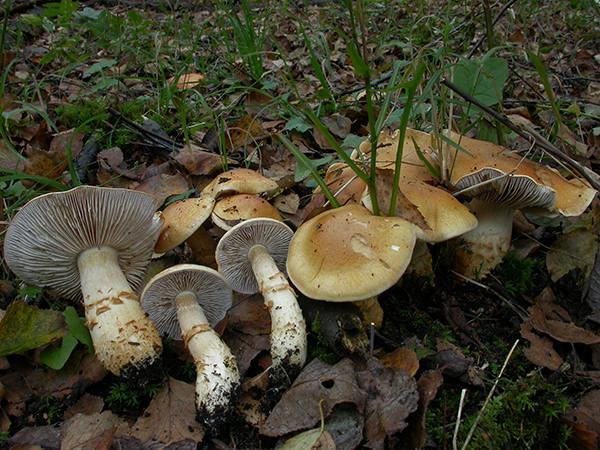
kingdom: Fungi
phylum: Basidiomycota
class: Agaricomycetes
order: Agaricales
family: Cortinariaceae
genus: Phlegmacium
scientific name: Phlegmacium triumphans
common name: gulbæltet slørhat
